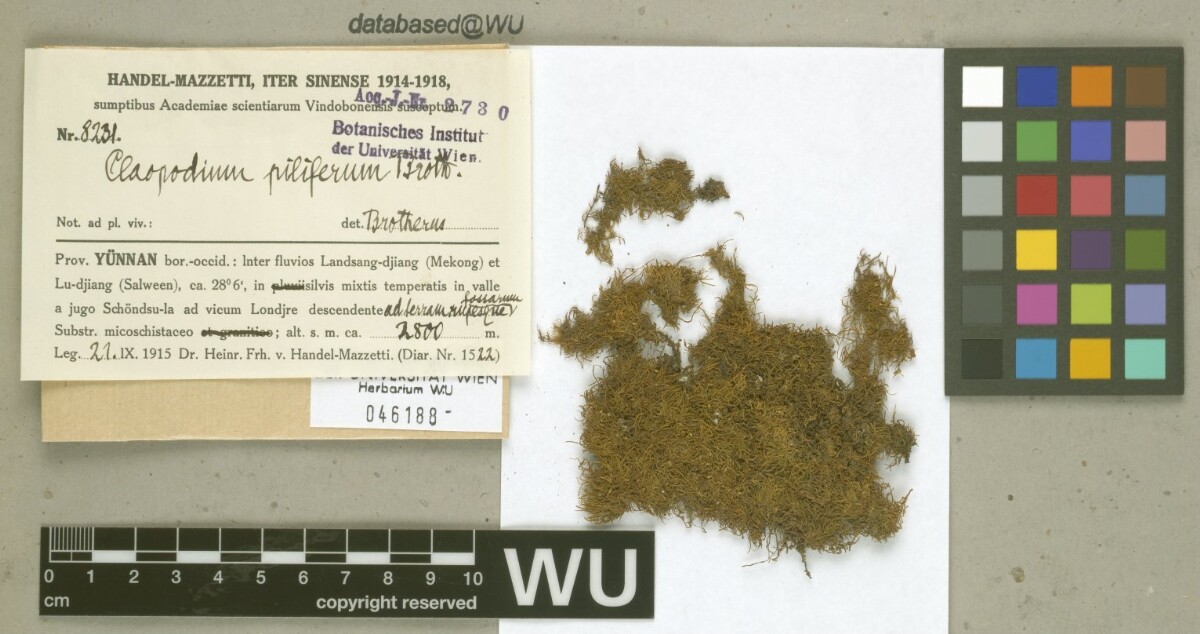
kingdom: Plantae
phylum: Bryophyta
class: Bryopsida
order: Hypnales
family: Brachytheciaceae
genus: Claopodium
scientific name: Claopodium pellucinerve
